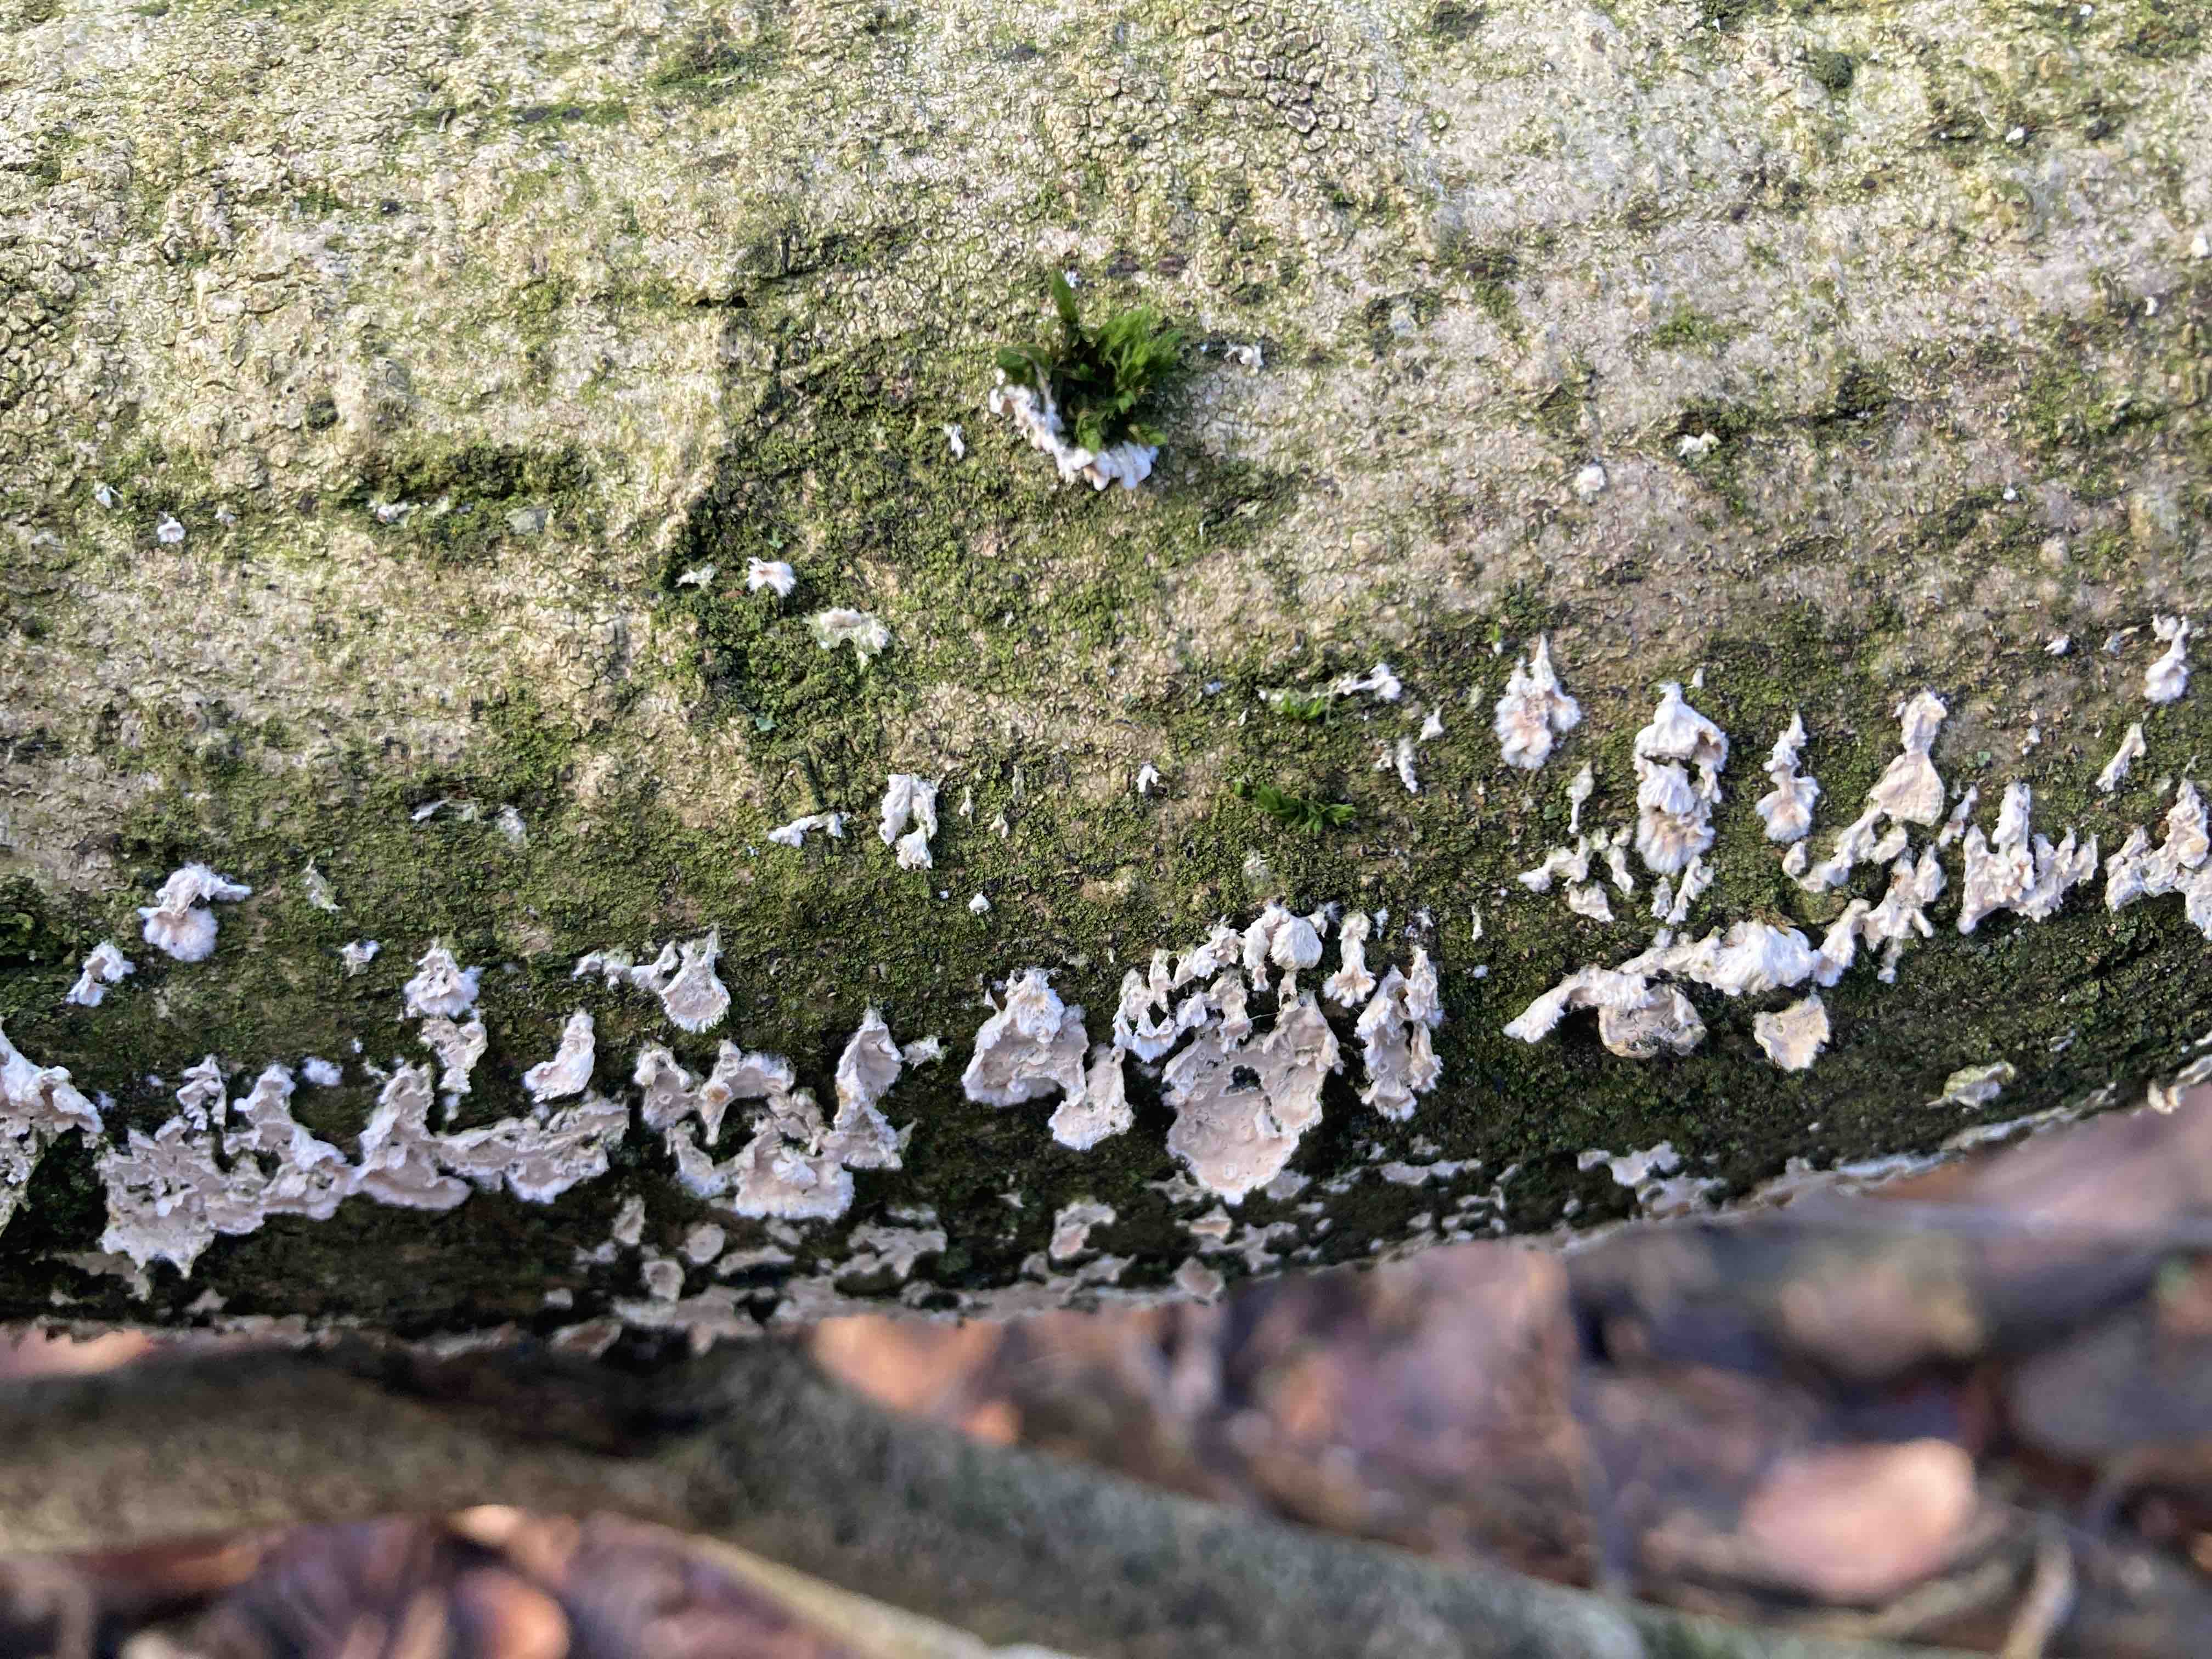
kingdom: Fungi
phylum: Basidiomycota
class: Agaricomycetes
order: Agaricales
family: Physalacriaceae
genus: Cylindrobasidium
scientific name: Cylindrobasidium evolvens
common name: sprækkehinde
